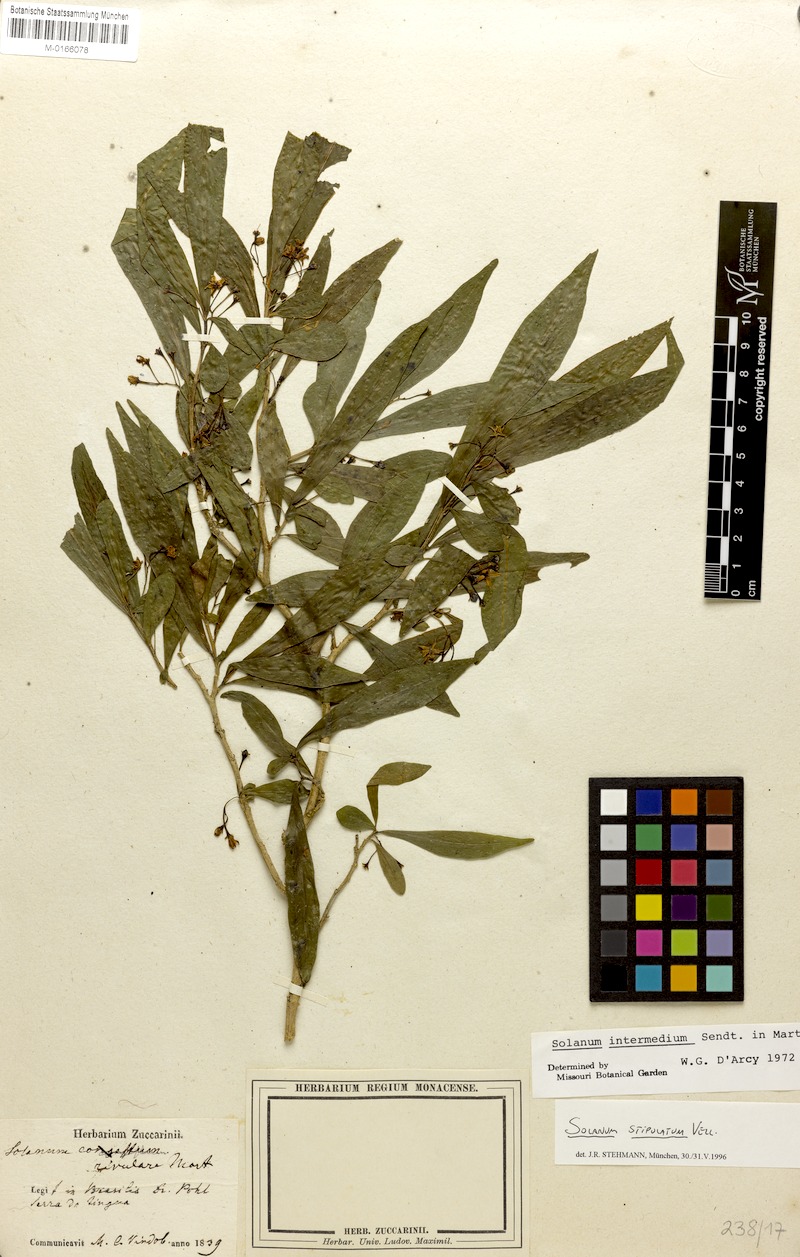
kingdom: Plantae
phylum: Tracheophyta
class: Magnoliopsida
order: Solanales
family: Solanaceae
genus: Solanum
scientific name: Solanum stipulatum
